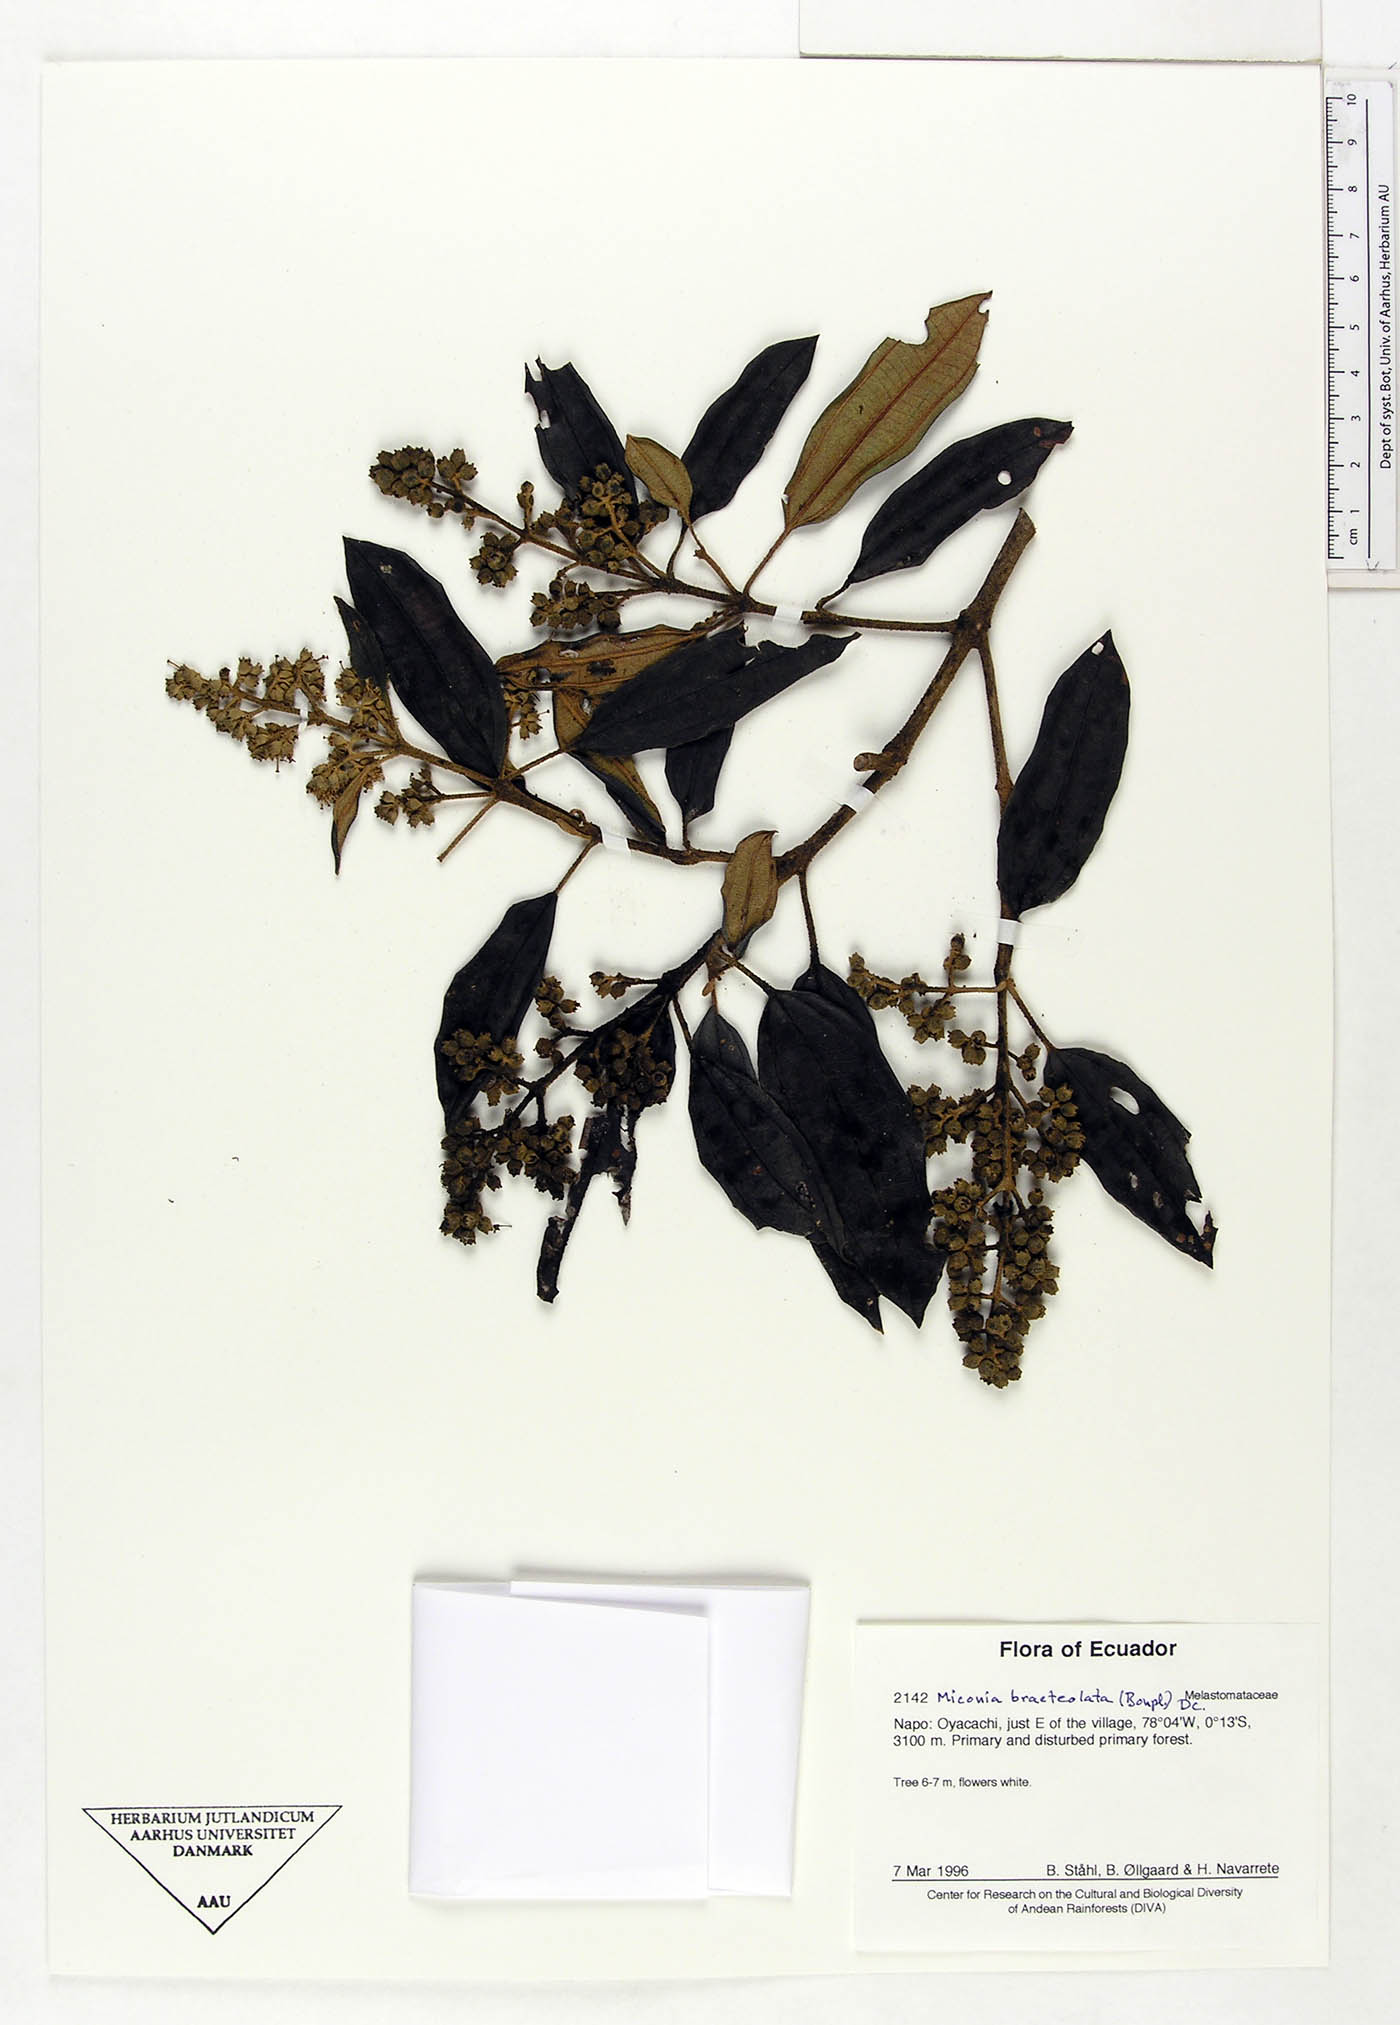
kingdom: Plantae
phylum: Tracheophyta
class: Magnoliopsida
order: Myrtales
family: Melastomataceae
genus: Miconia
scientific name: Miconia bracteolata
